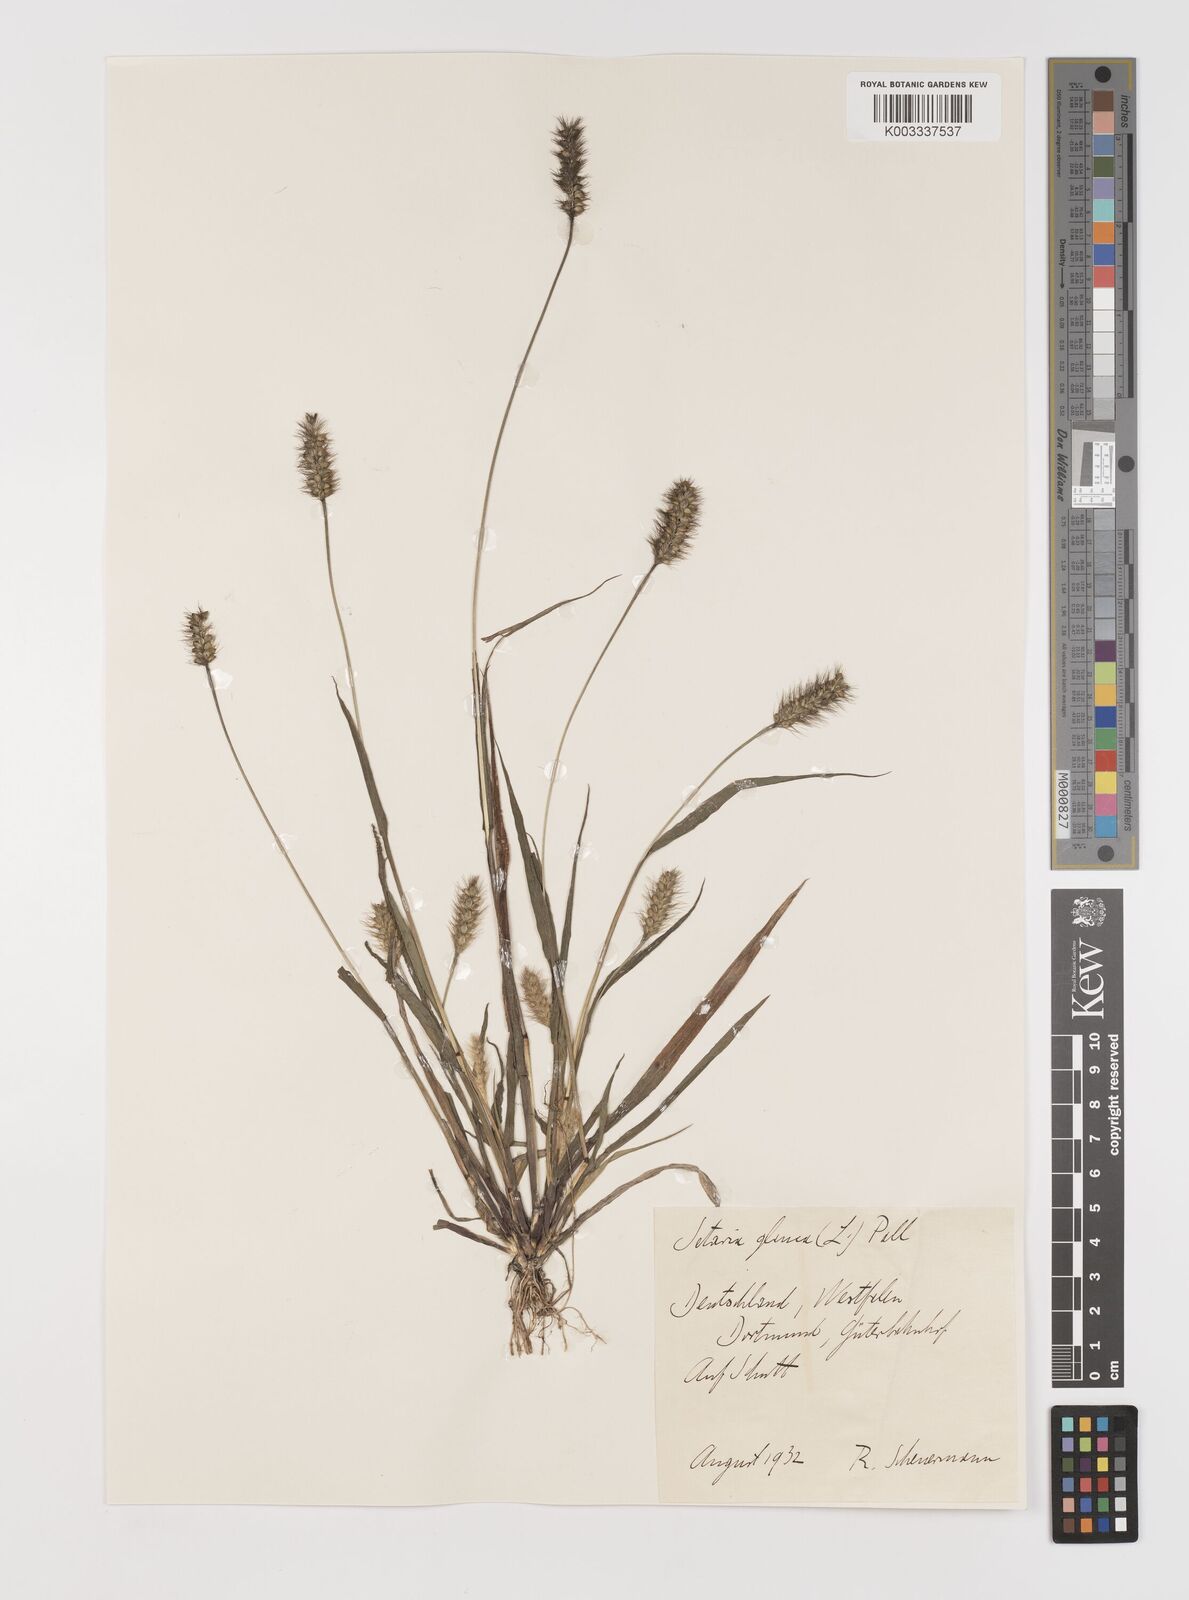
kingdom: Plantae
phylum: Tracheophyta
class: Liliopsida
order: Poales
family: Poaceae
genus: Setaria
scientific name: Setaria pumila
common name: Yellow bristle-grass
